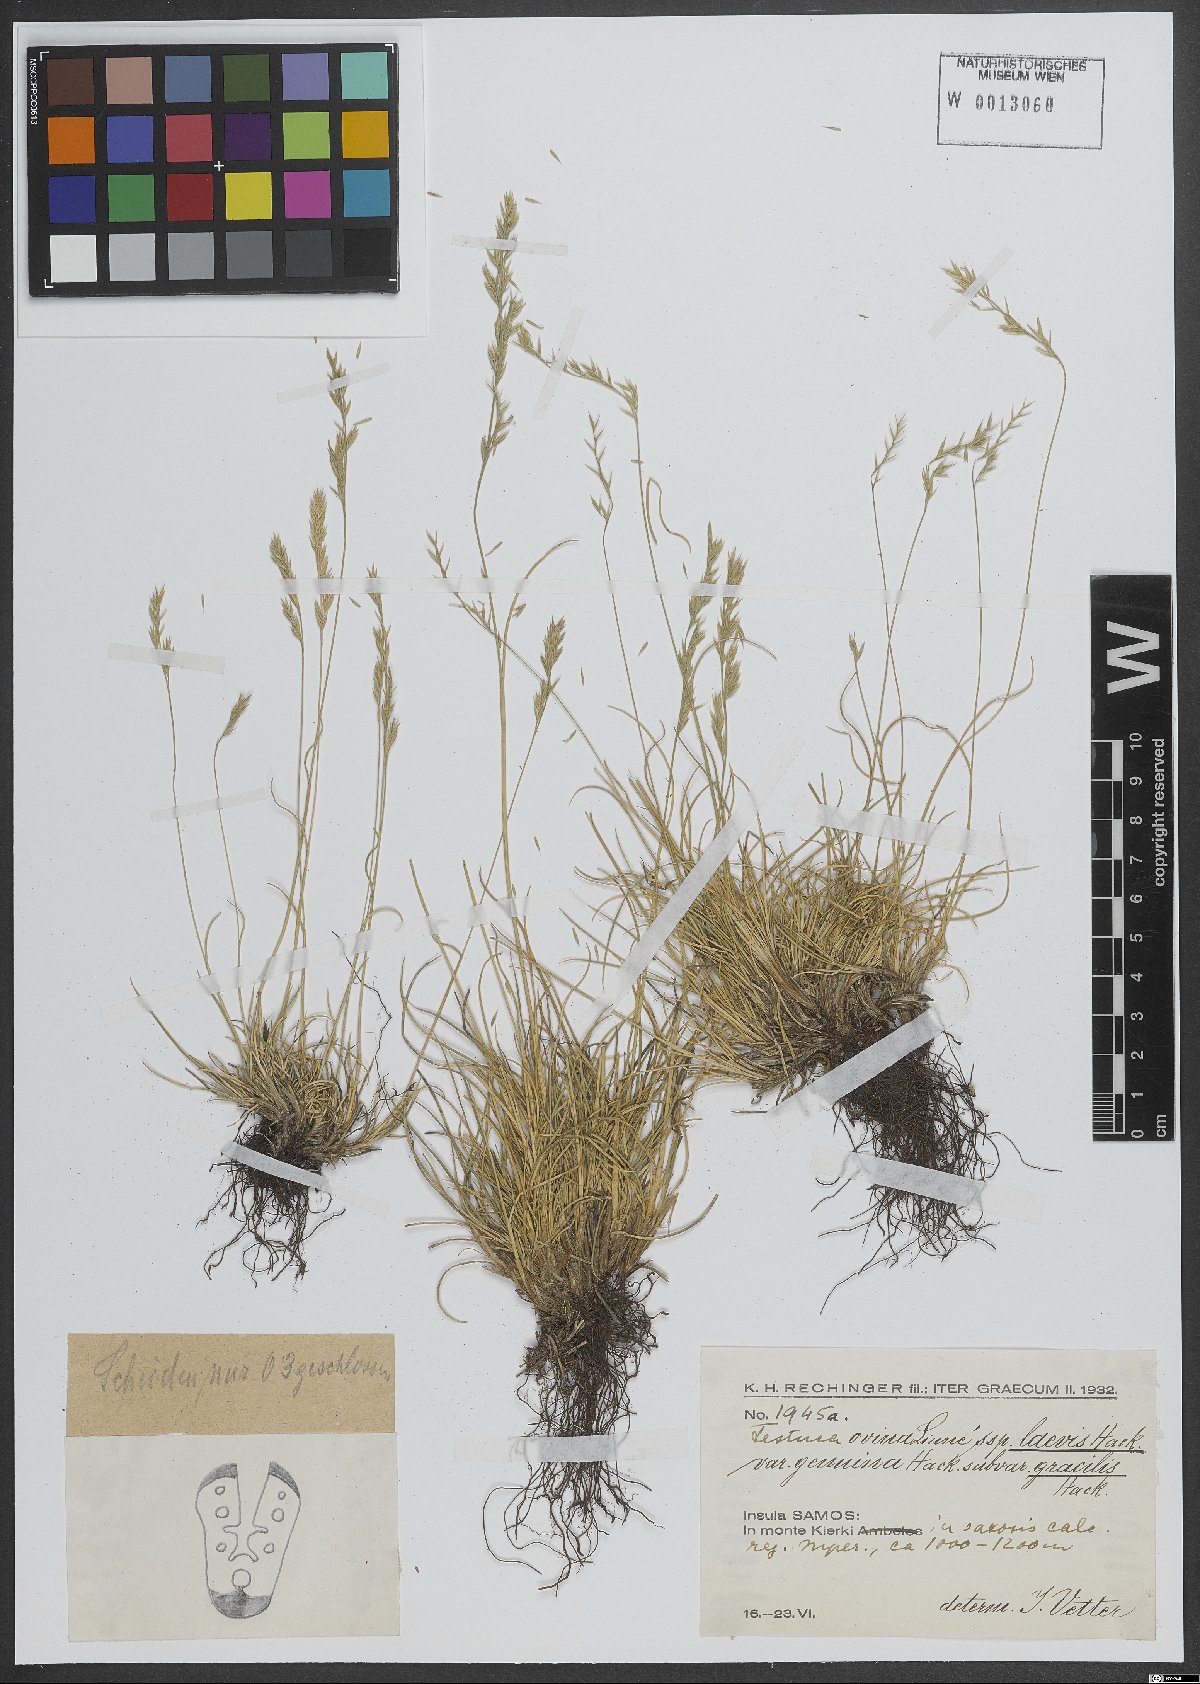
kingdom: Plantae
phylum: Tracheophyta
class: Liliopsida
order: Poales
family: Poaceae
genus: Festuca
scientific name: Festuca circummediterranea
